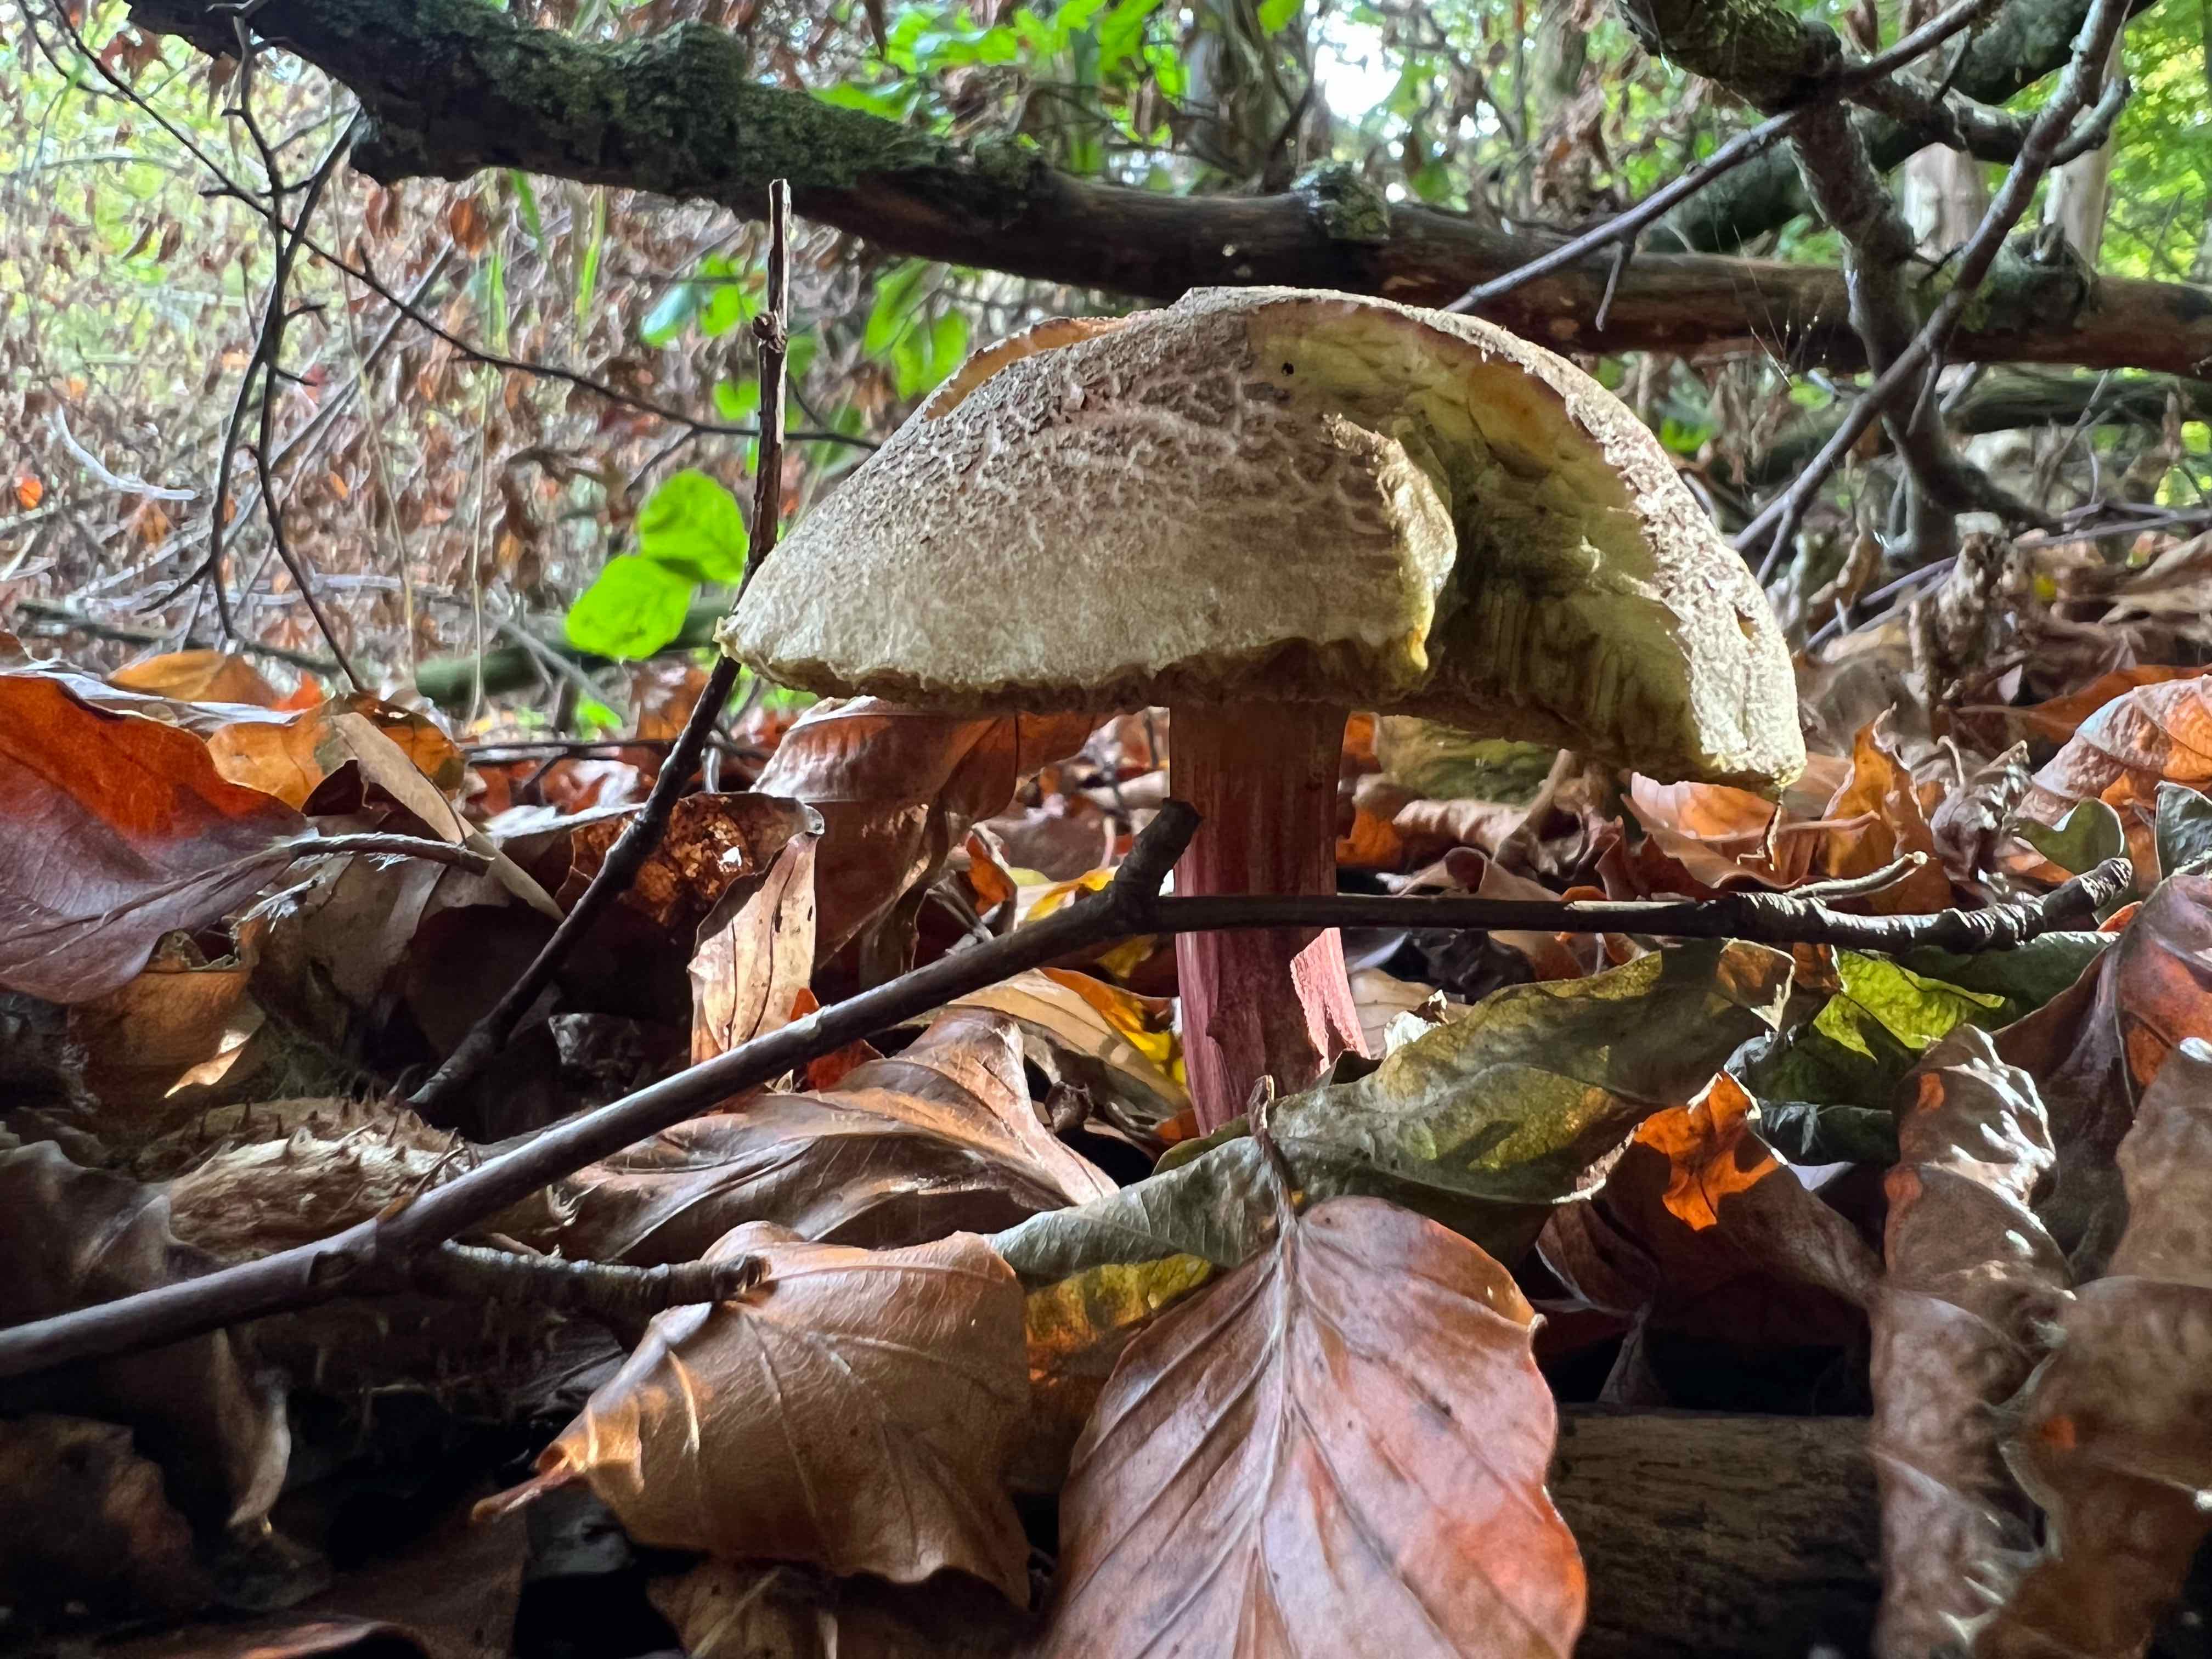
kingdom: Fungi
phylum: Basidiomycota
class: Agaricomycetes
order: Boletales
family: Boletaceae
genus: Xerocomellus
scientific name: Xerocomellus
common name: dværgrørhat
